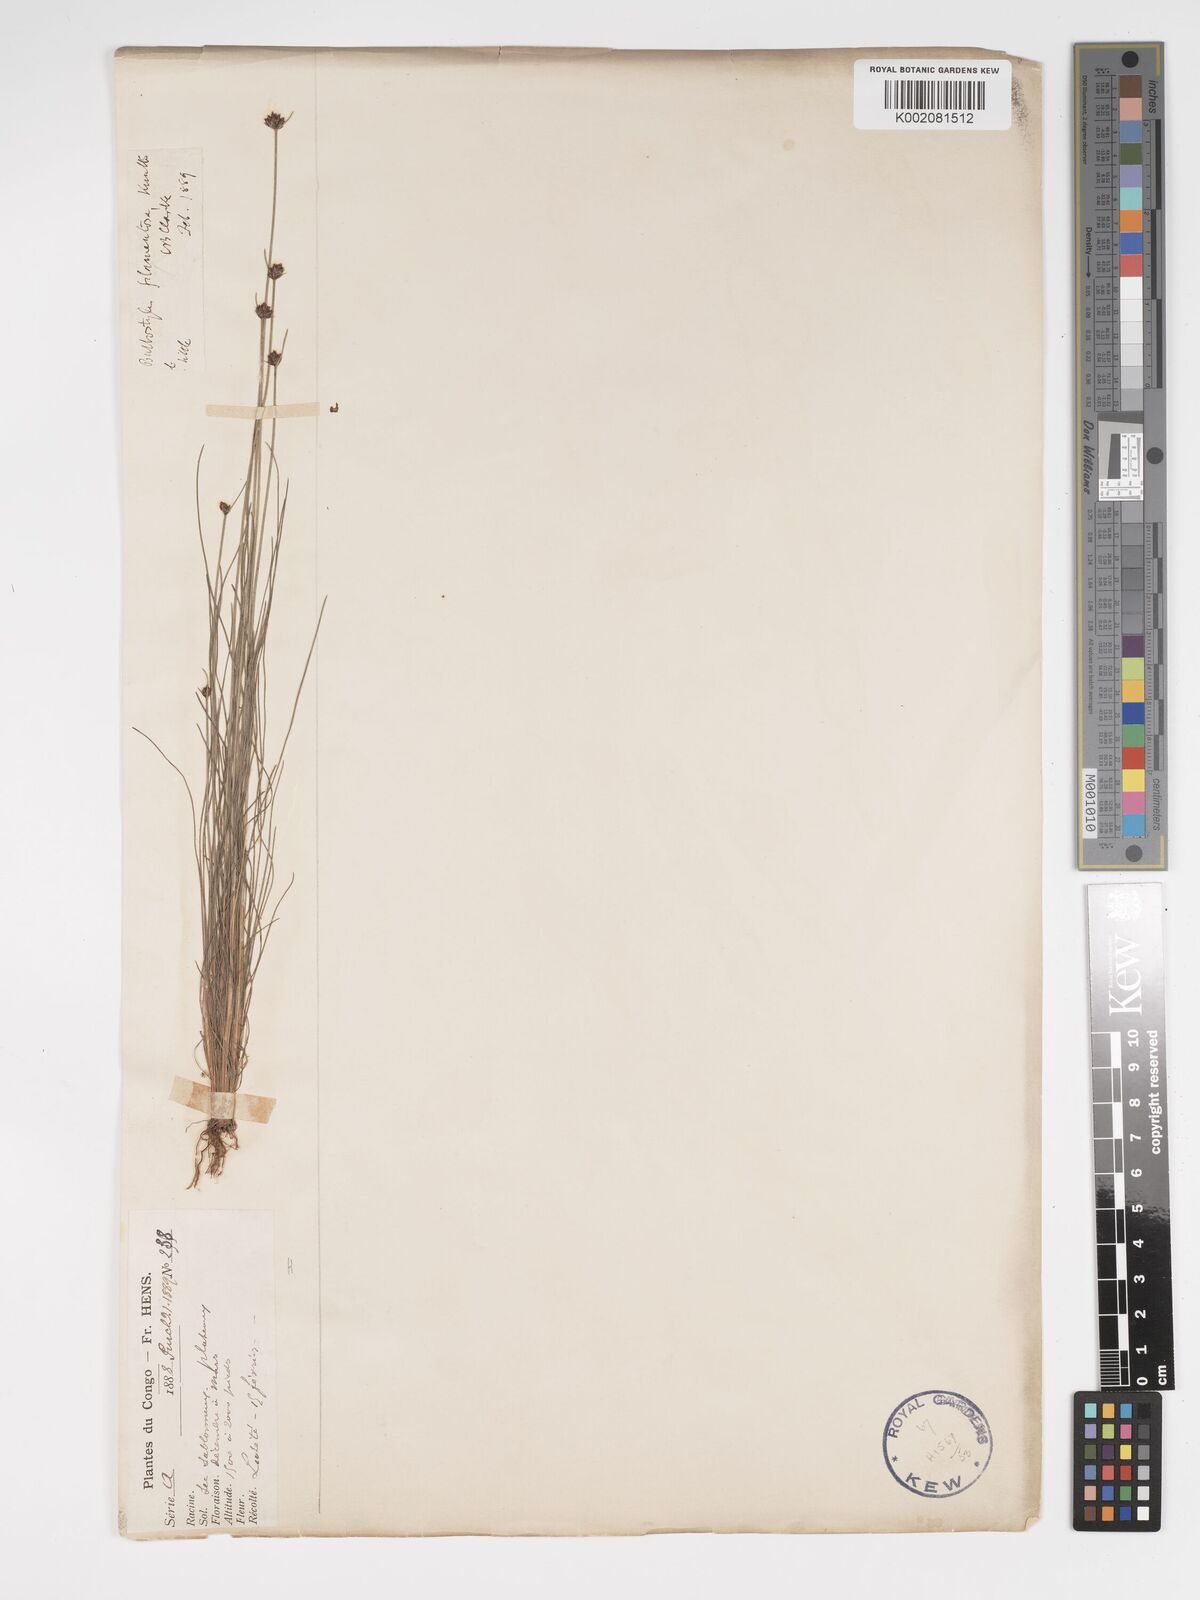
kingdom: Plantae
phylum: Tracheophyta
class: Liliopsida
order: Poales
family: Cyperaceae
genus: Bulbostylis
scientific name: Bulbostylis scabricaulis
